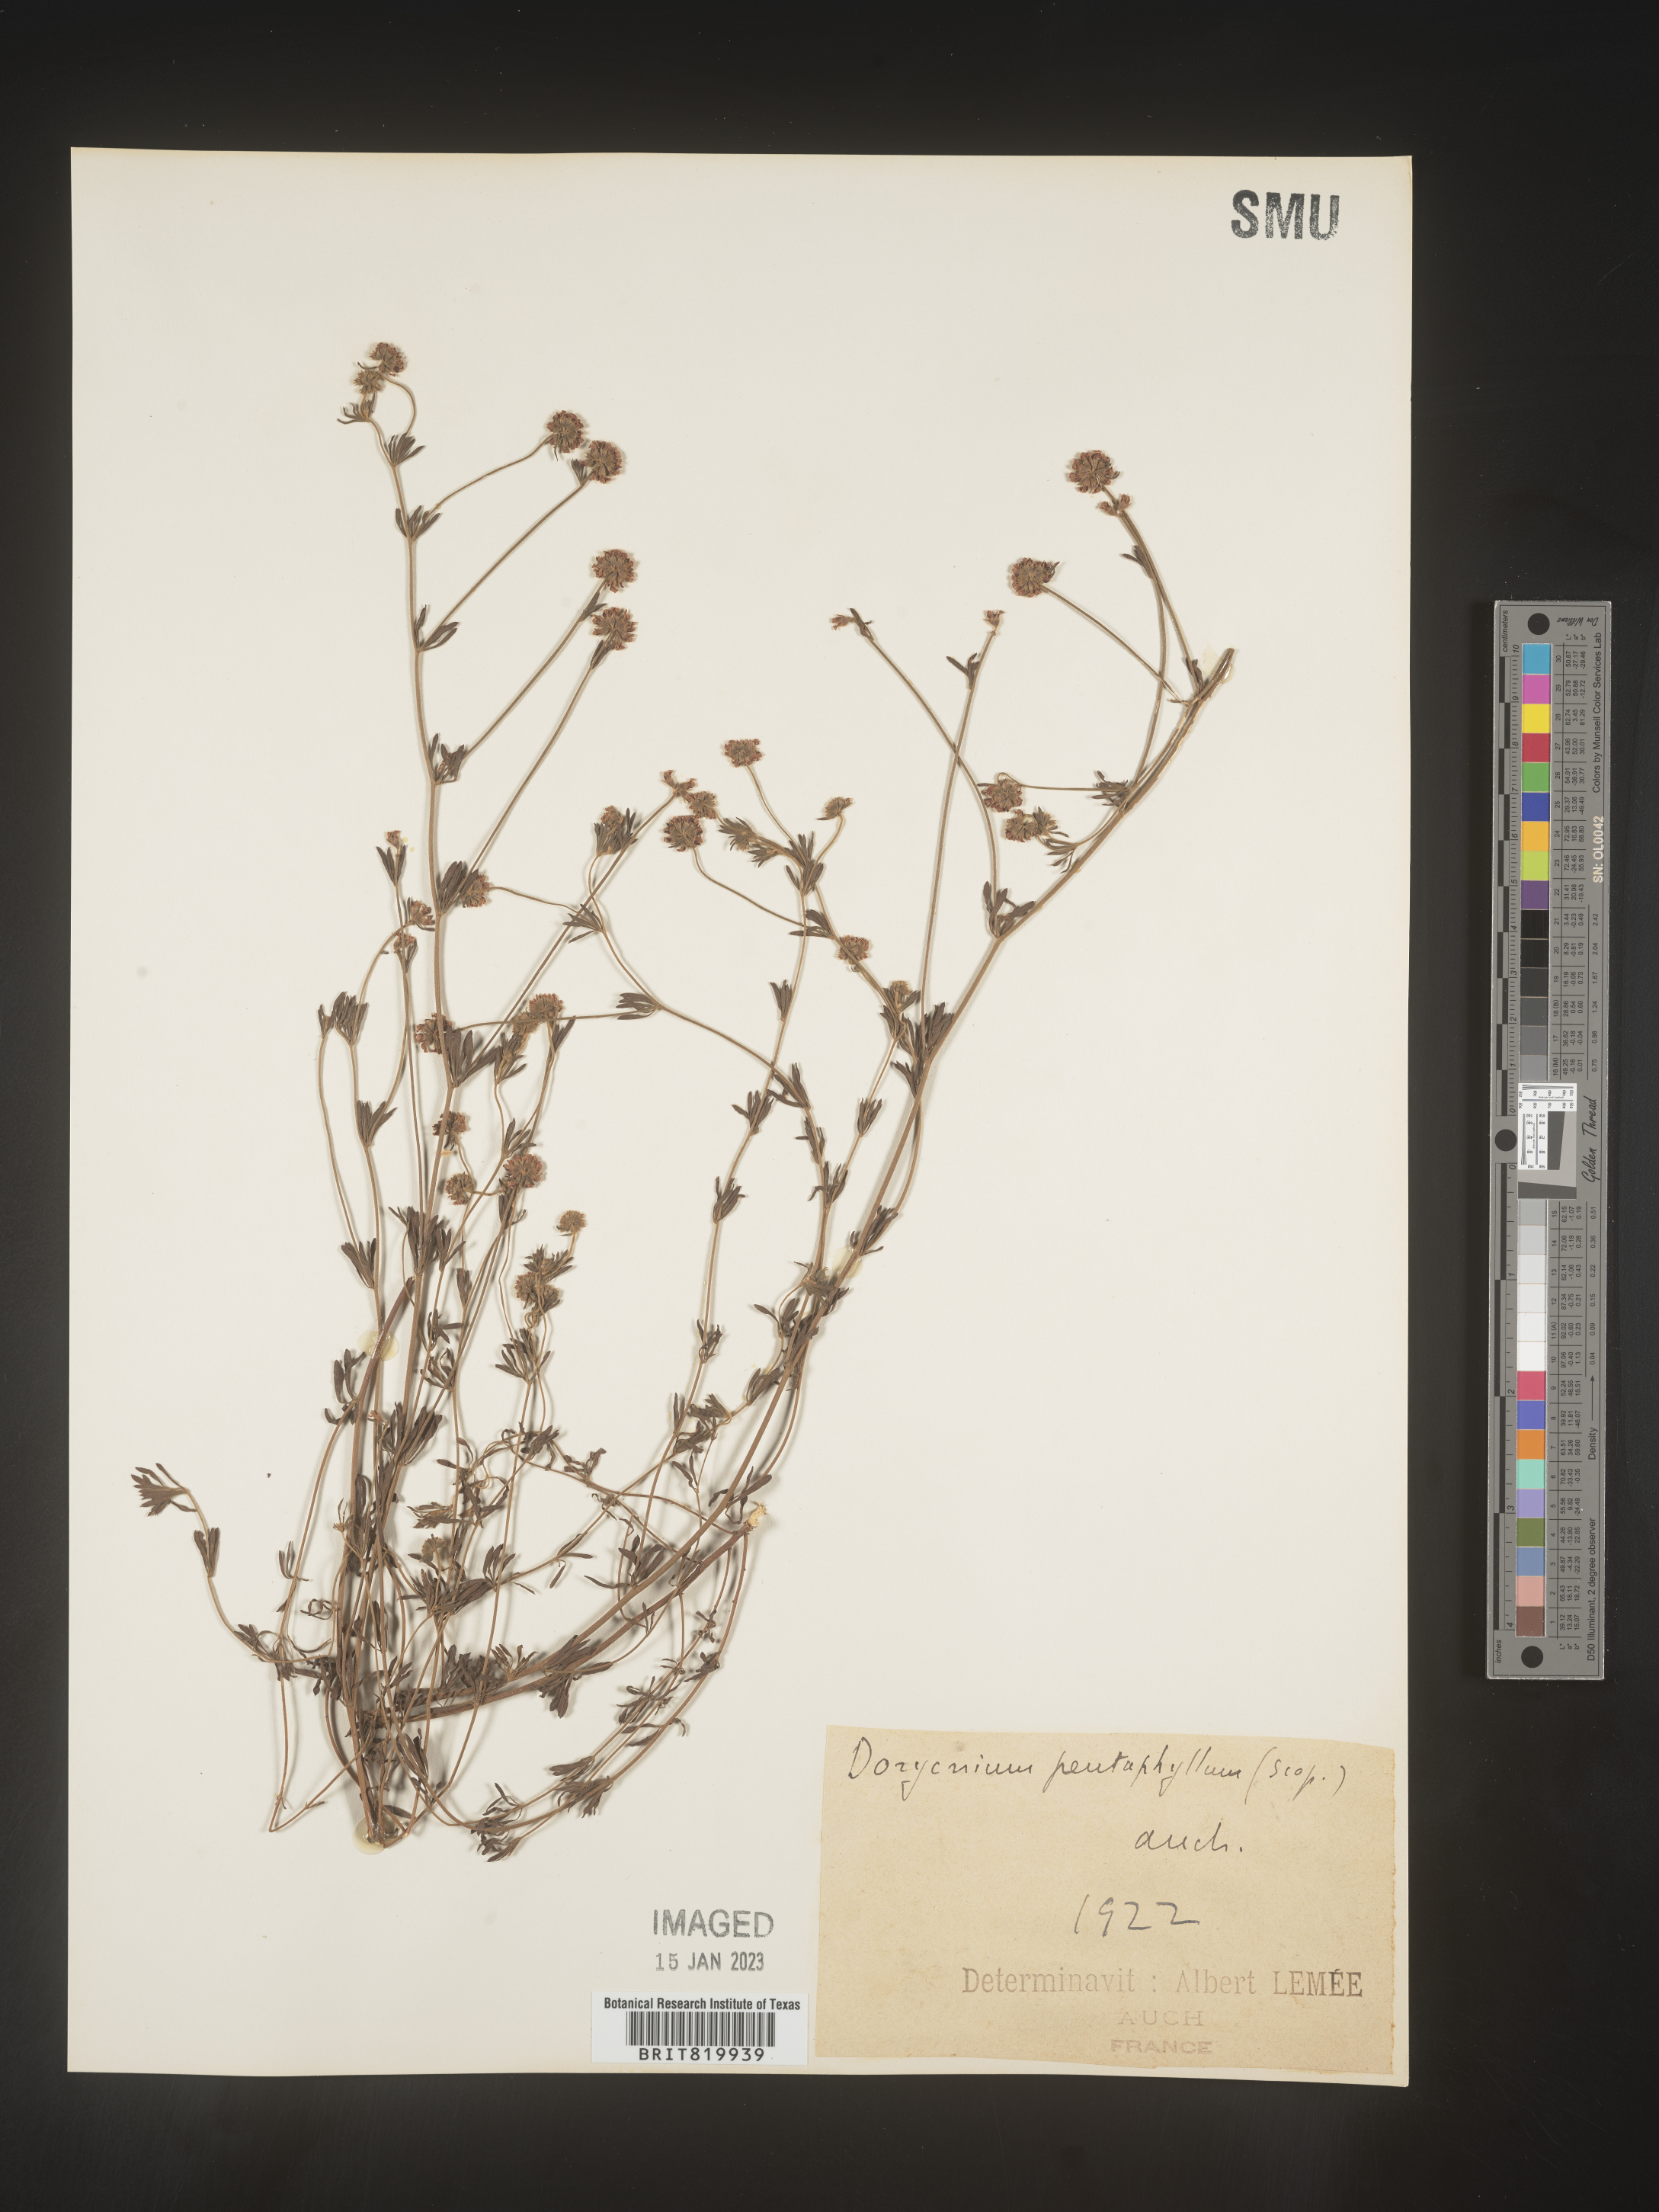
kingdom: Plantae
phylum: Tracheophyta
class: Magnoliopsida
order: Fabales
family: Fabaceae
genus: Lotus
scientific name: Lotus
